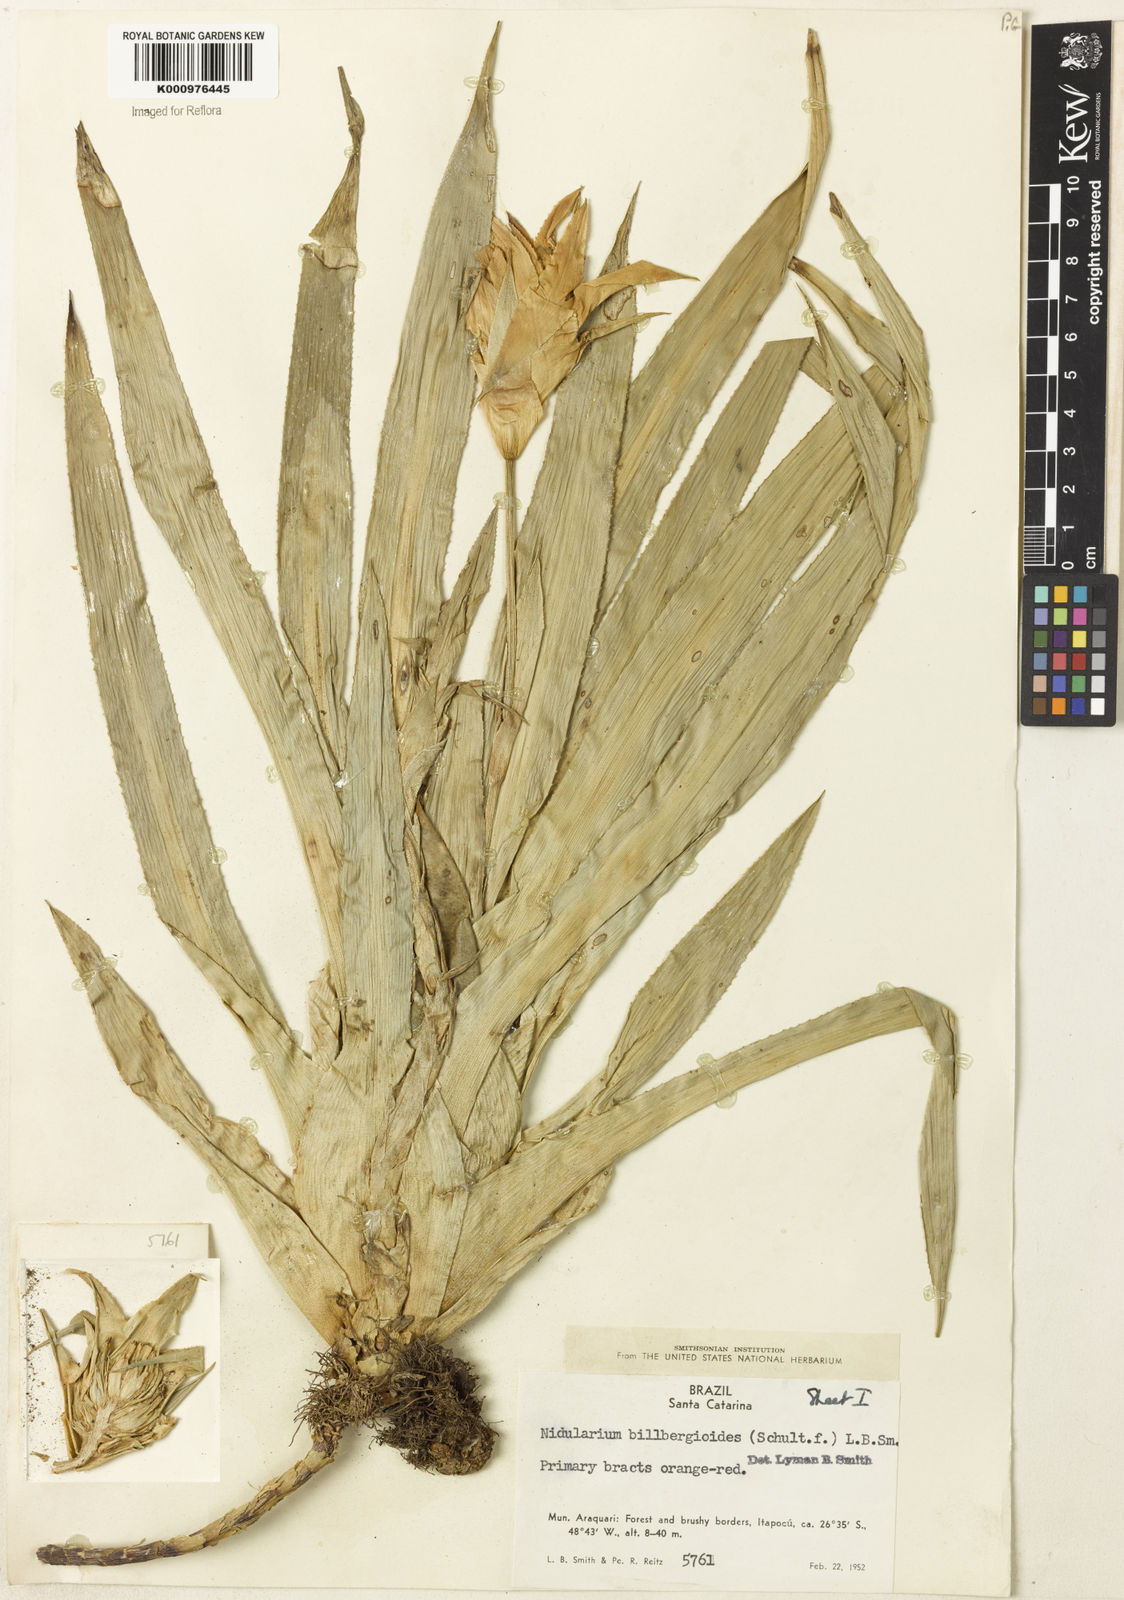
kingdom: Plantae
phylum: Tracheophyta
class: Liliopsida
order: Poales
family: Bromeliaceae
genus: Nidularium
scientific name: Nidularium
